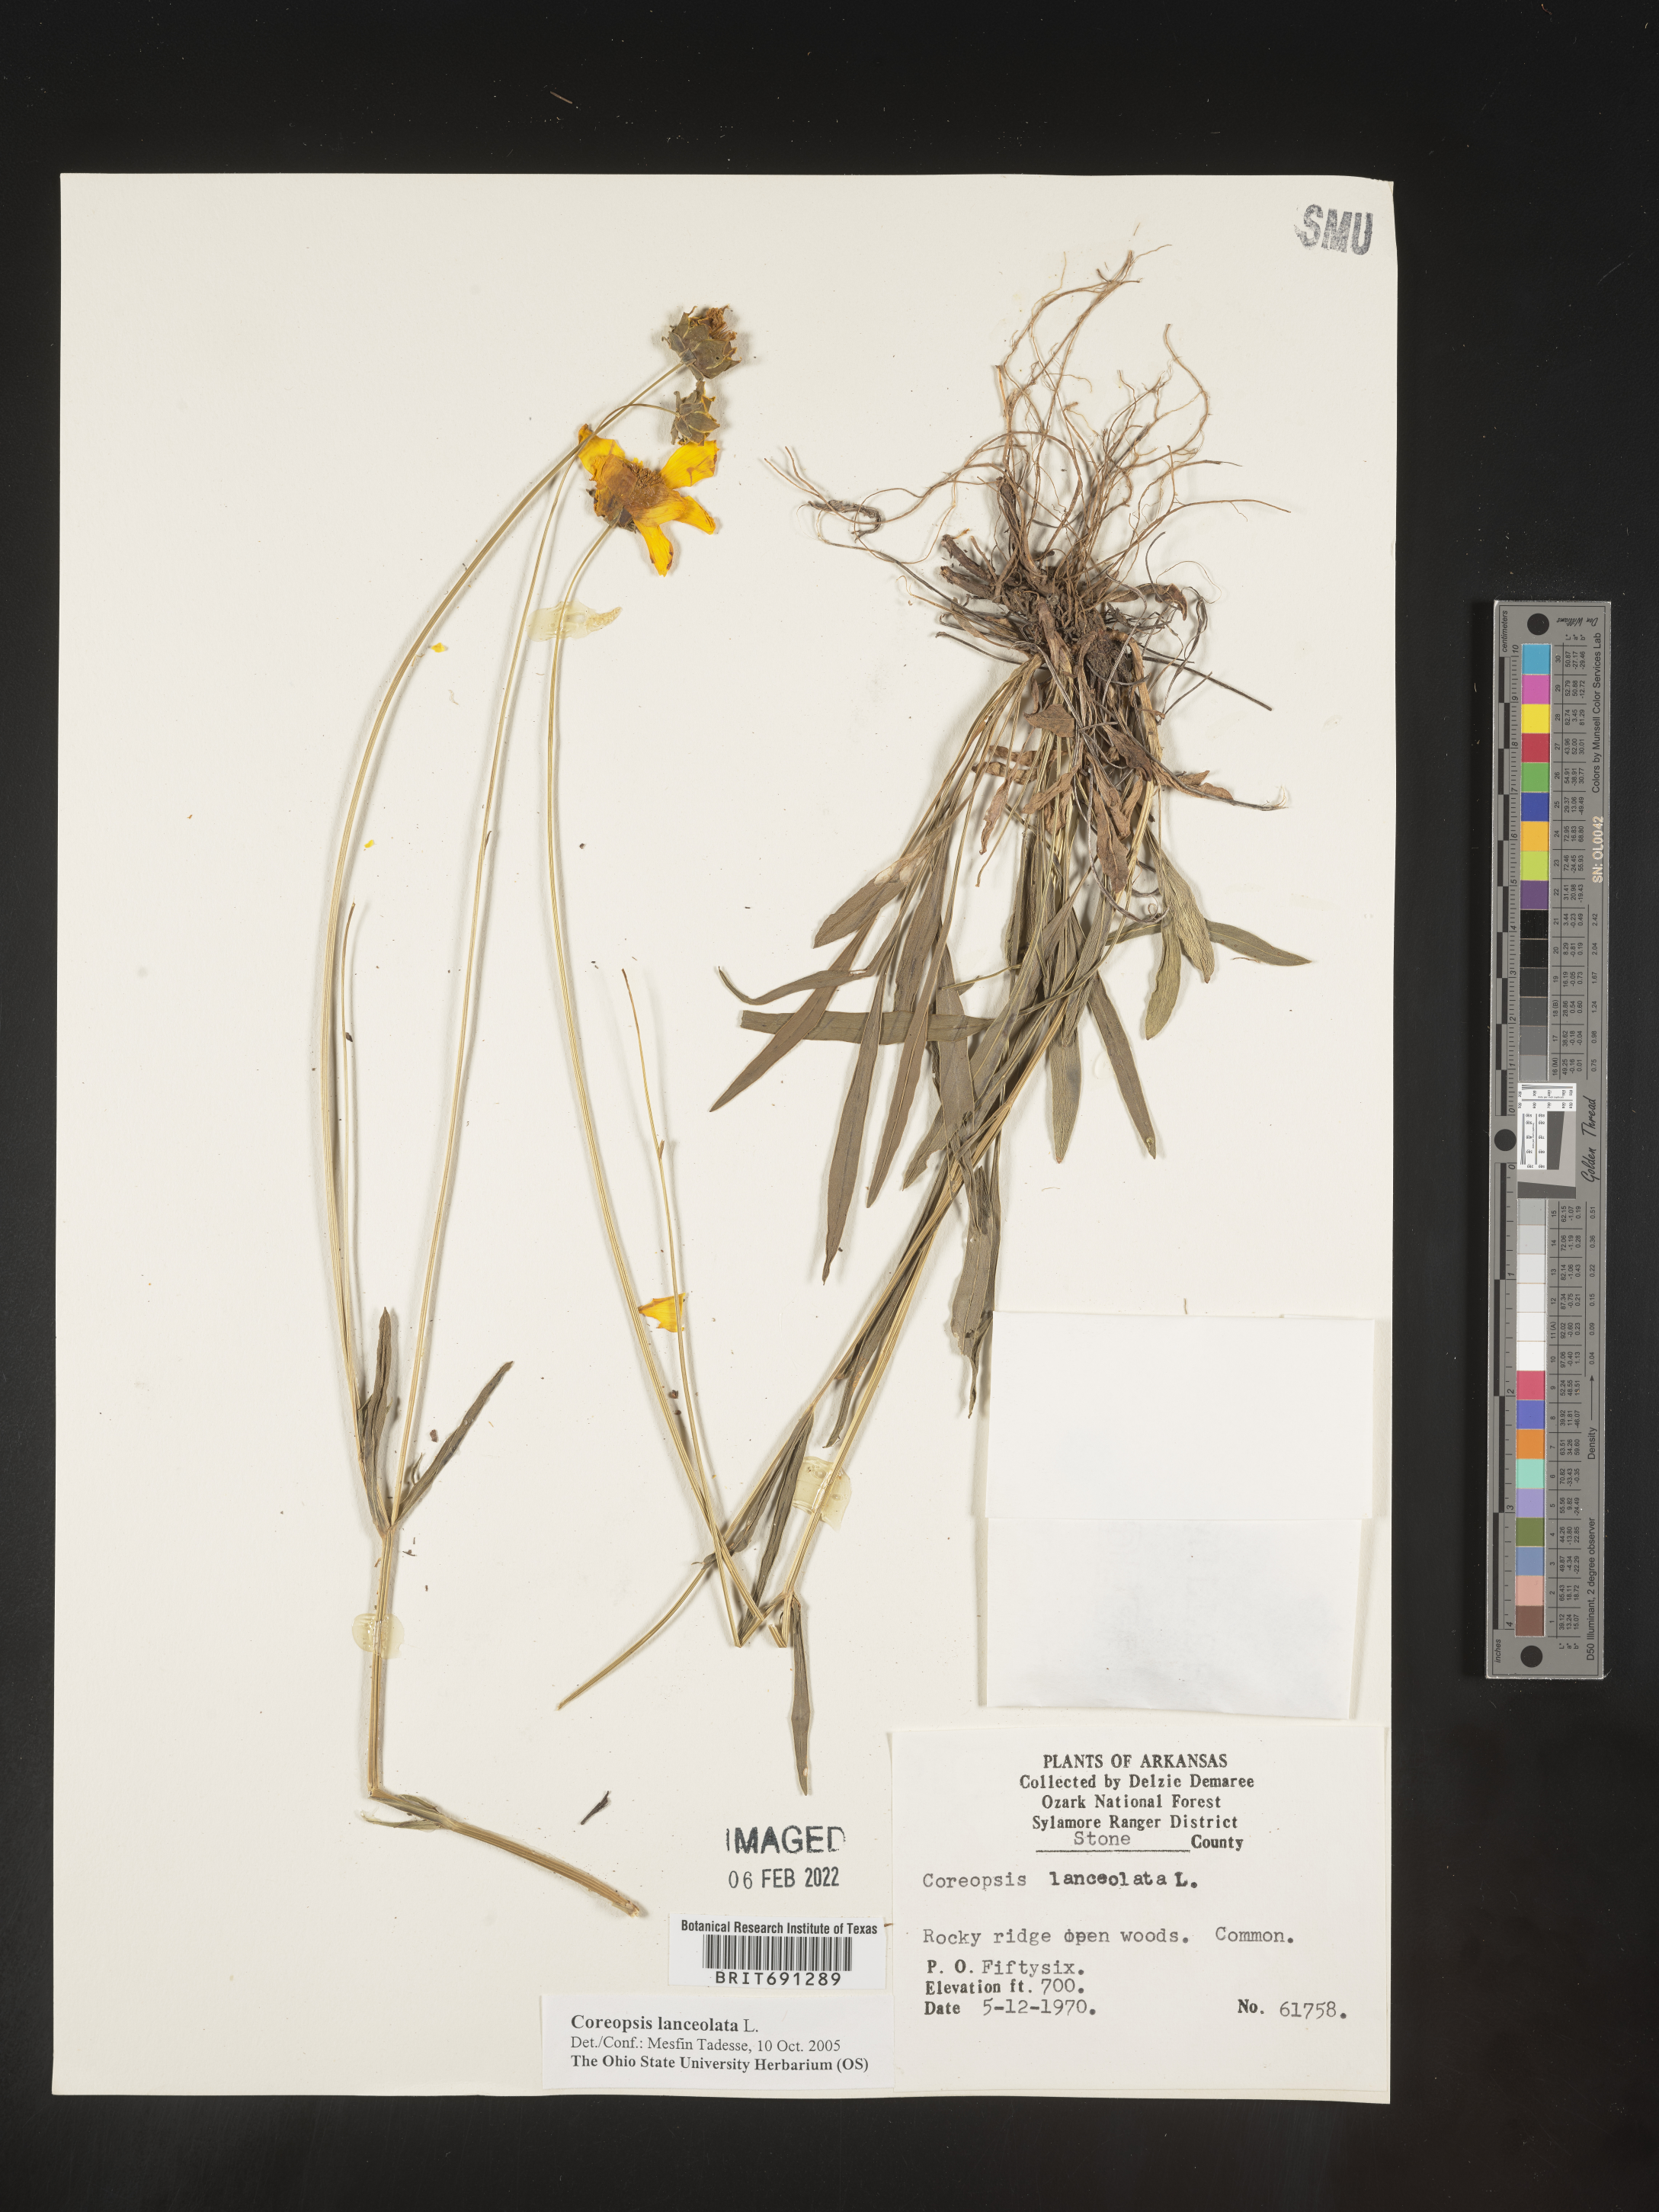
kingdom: Plantae
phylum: Tracheophyta
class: Magnoliopsida
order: Asterales
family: Asteraceae
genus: Coreopsis
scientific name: Coreopsis lanceolata
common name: Garden coreopsis
